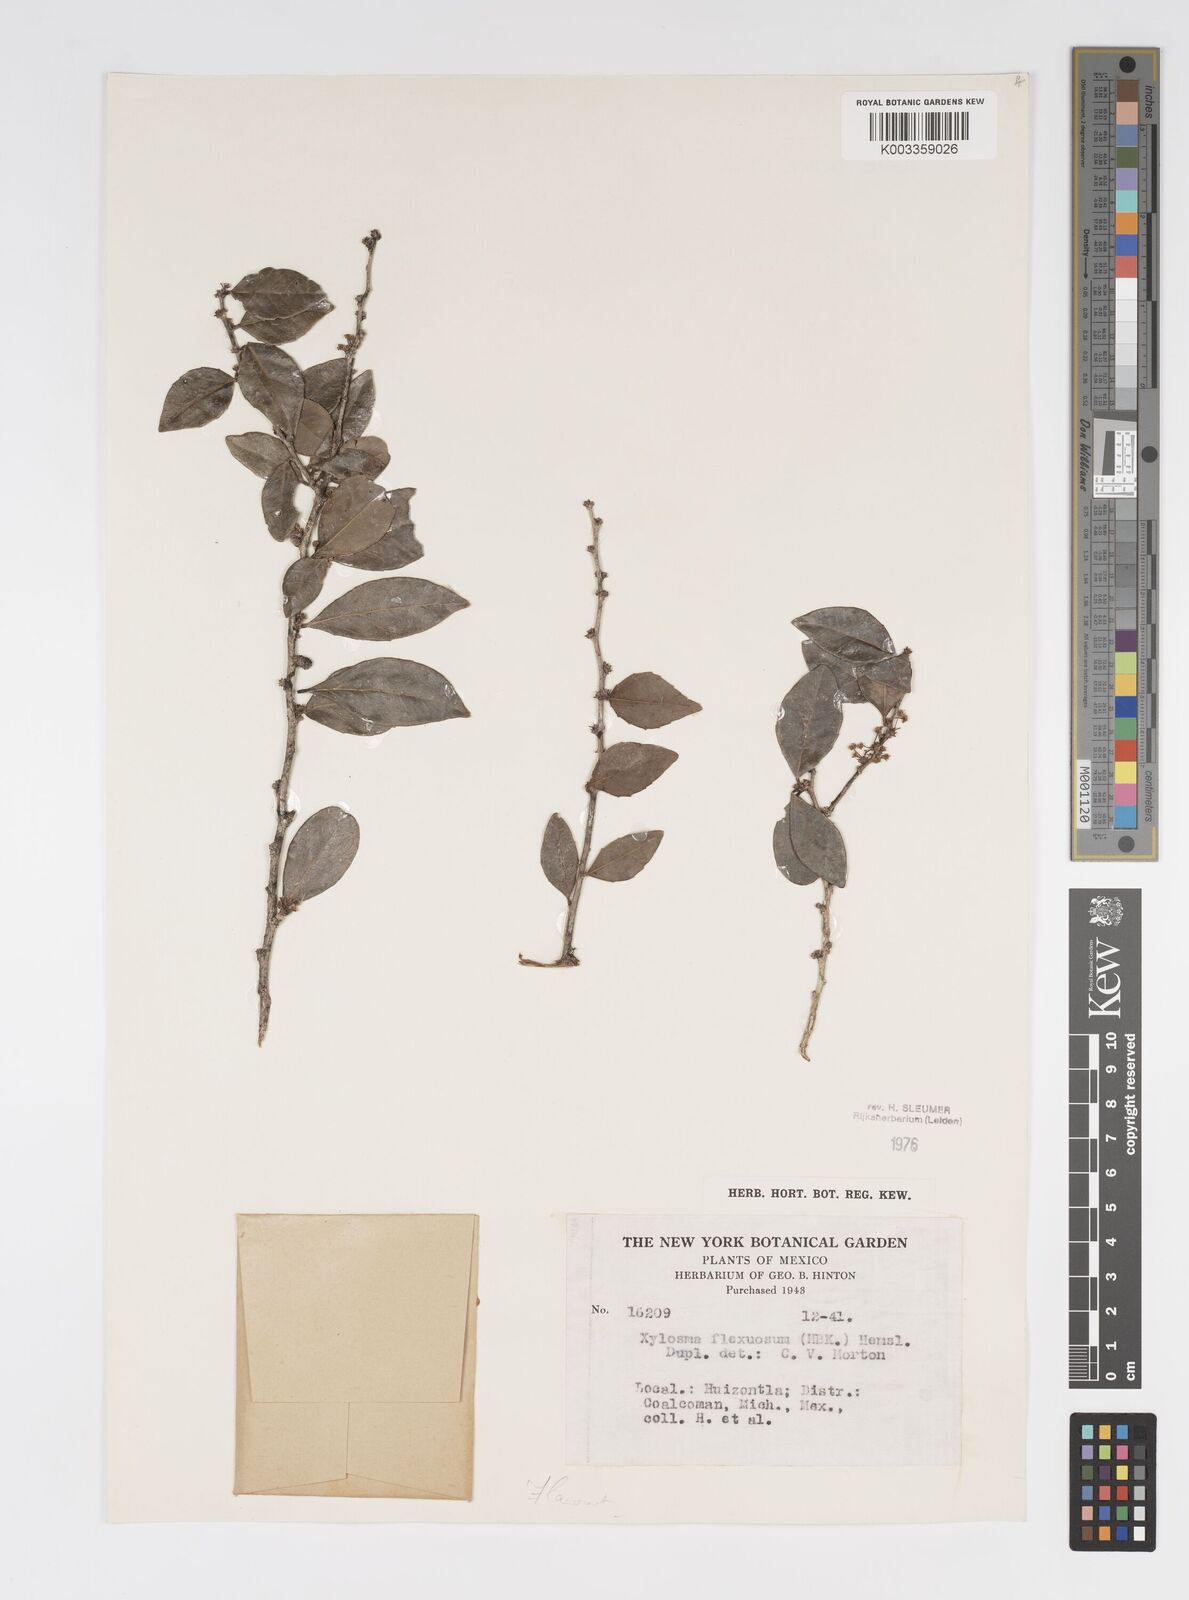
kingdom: Plantae
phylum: Tracheophyta
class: Magnoliopsida
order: Malpighiales
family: Salicaceae
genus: Xylosma
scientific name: Xylosma flexuosa
